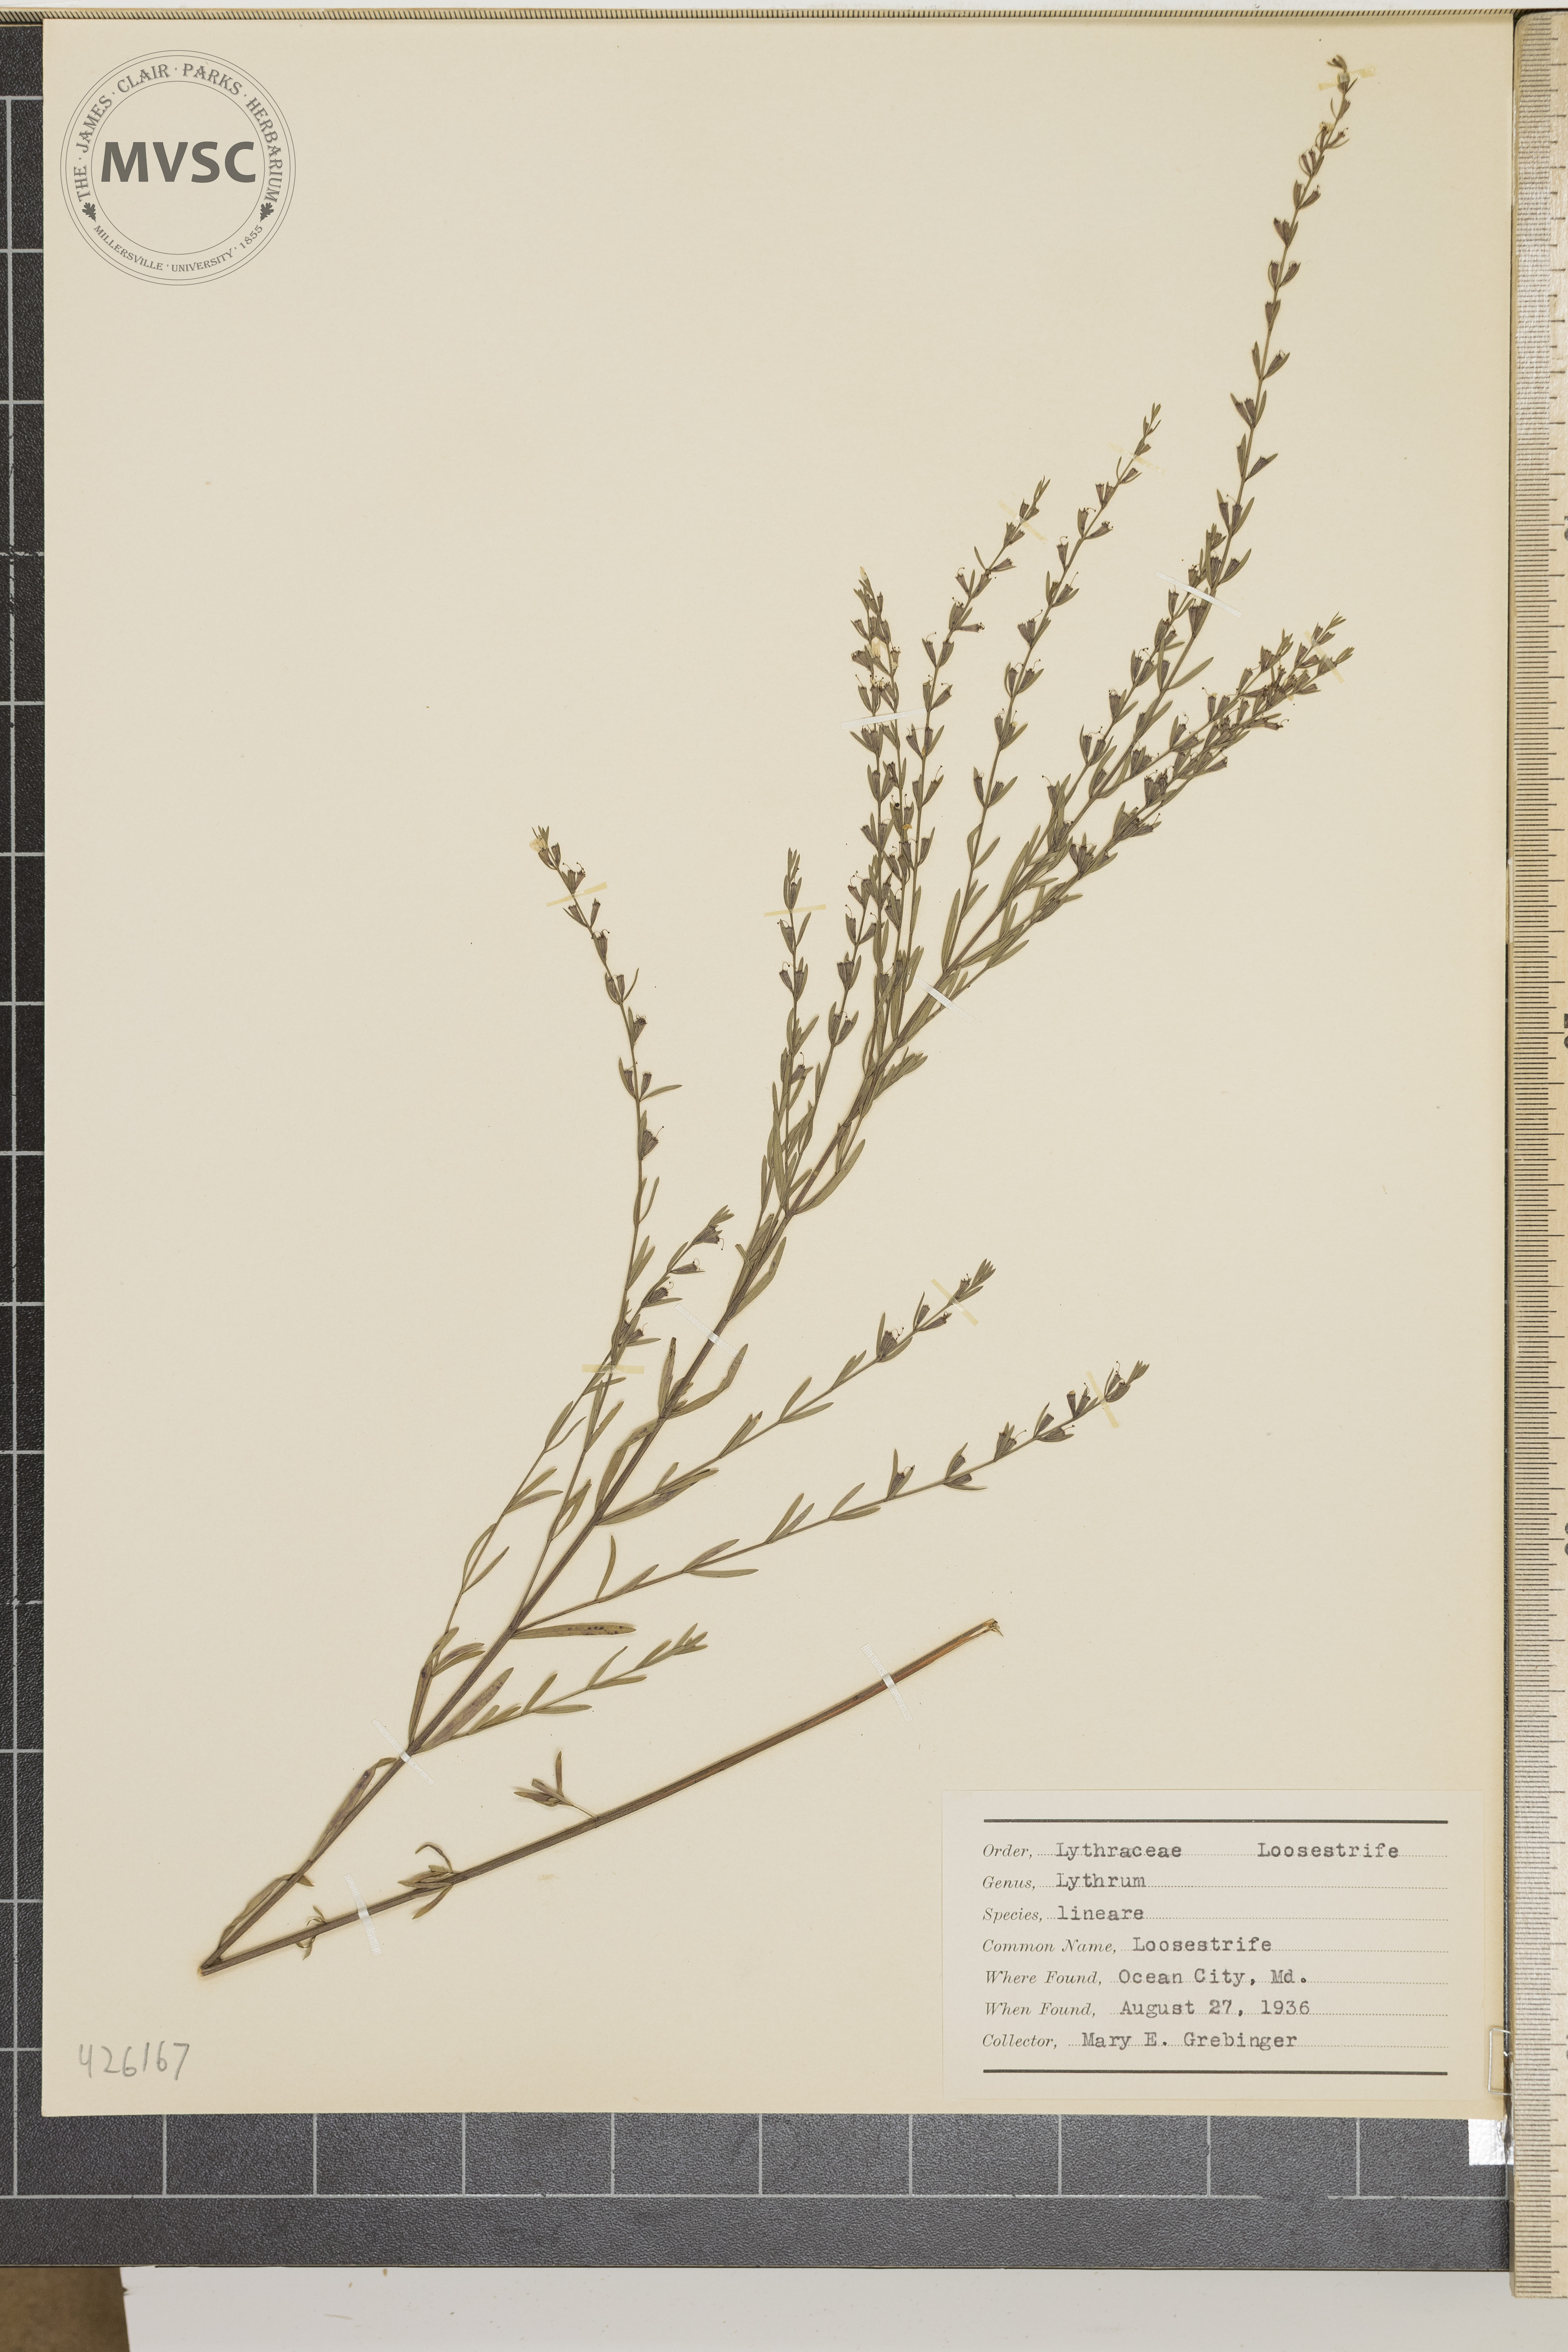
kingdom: Plantae
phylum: Tracheophyta
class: Magnoliopsida
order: Myrtales
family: Lythraceae
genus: Lythrum
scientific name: Lythrum lineare
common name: Loosestrife
